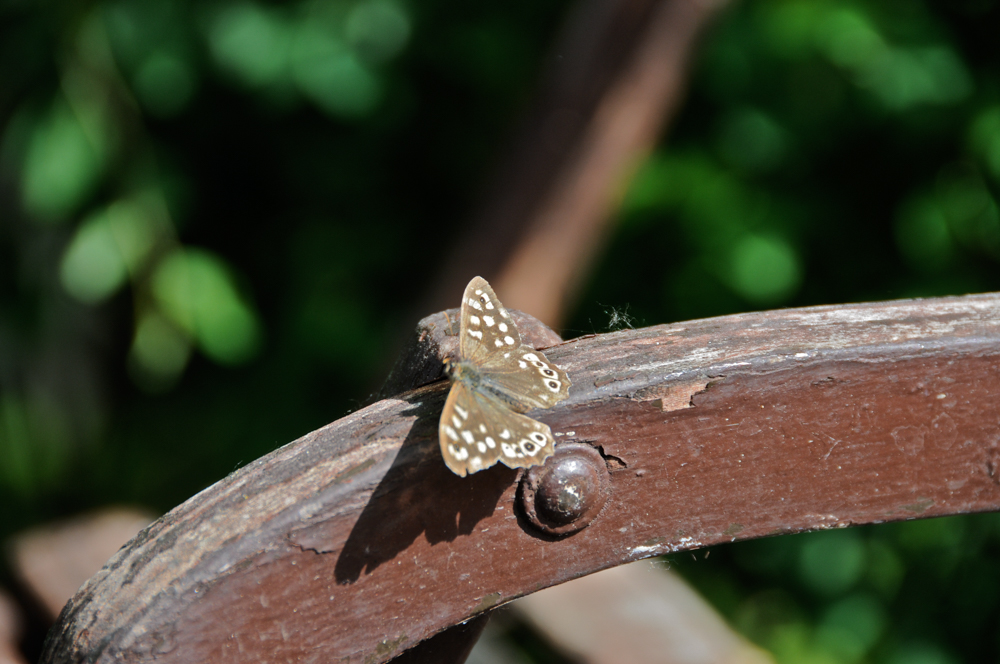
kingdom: Animalia
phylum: Arthropoda
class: Insecta
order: Lepidoptera
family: Nymphalidae
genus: Pararge
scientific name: Pararge aegeria
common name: Speckled wood
